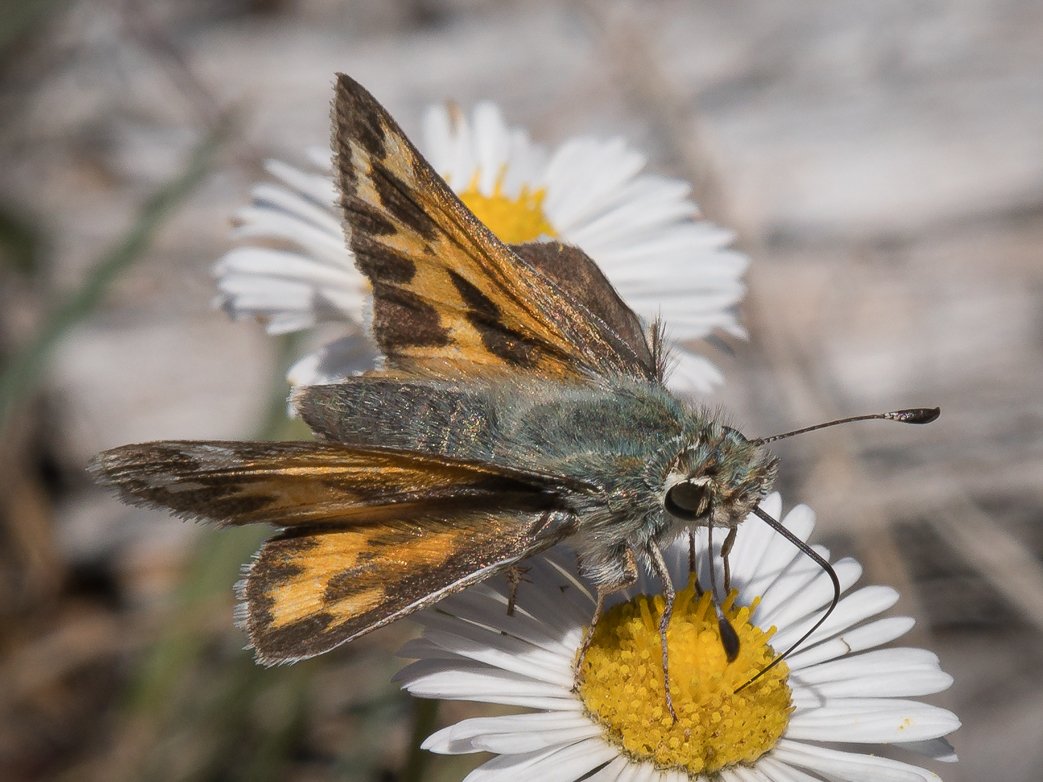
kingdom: Animalia
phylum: Arthropoda
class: Insecta
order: Lepidoptera
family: Hesperiidae
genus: Hesperia
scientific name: Hesperia juba
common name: Juba Skipper
